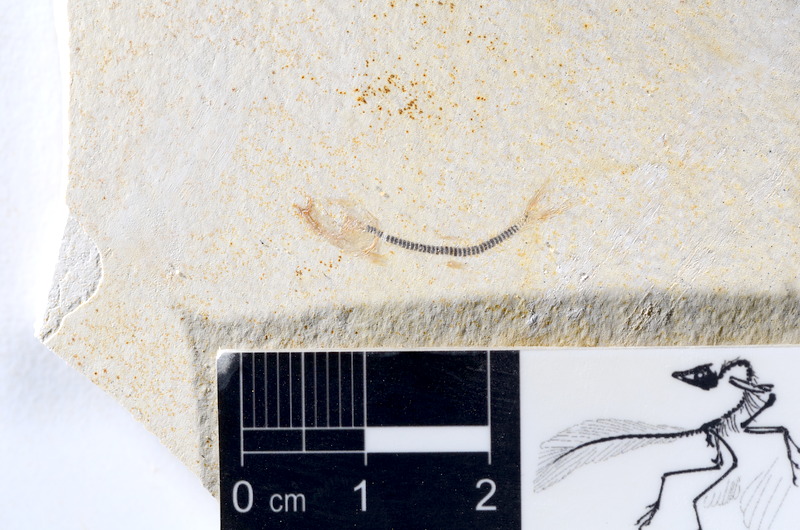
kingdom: Animalia
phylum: Chordata
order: Salmoniformes
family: Orthogonikleithridae
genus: Orthogonikleithrus
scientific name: Orthogonikleithrus hoelli
